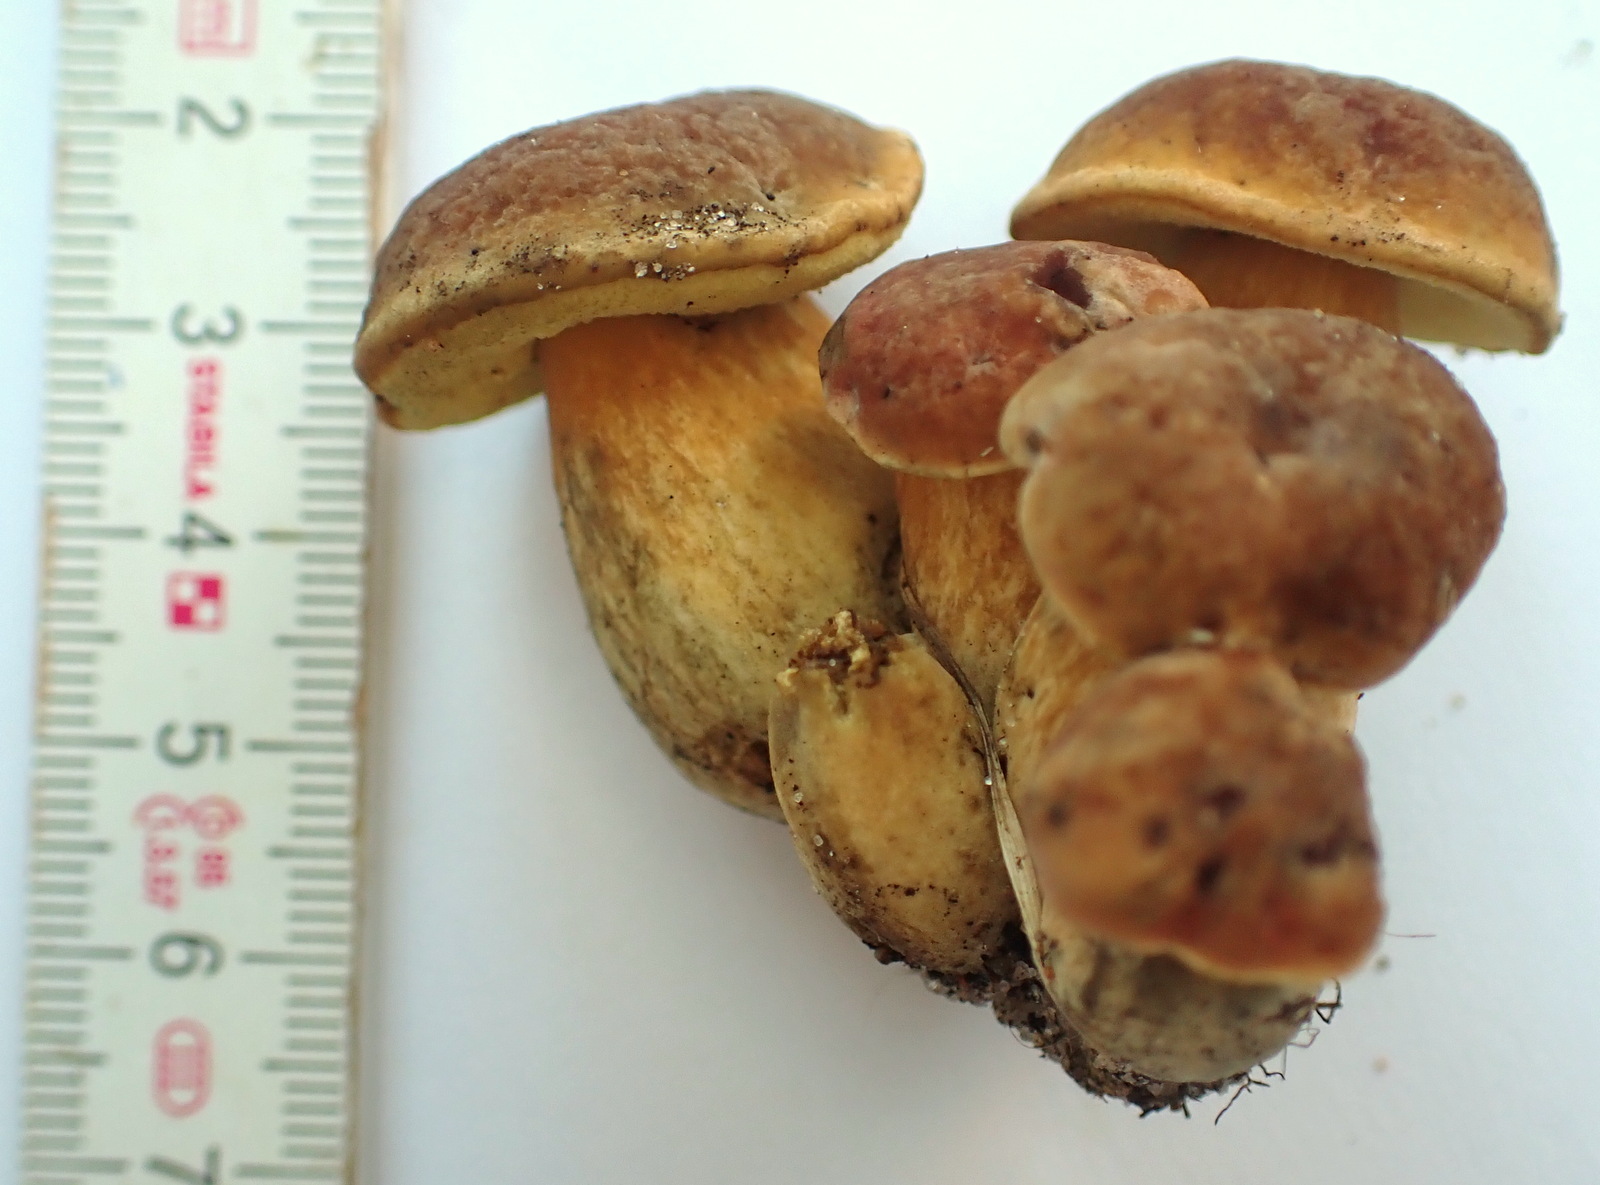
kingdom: Fungi
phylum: Basidiomycota
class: Agaricomycetes
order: Boletales
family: Boletaceae
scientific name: Boletaceae
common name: rørhatfamilien
